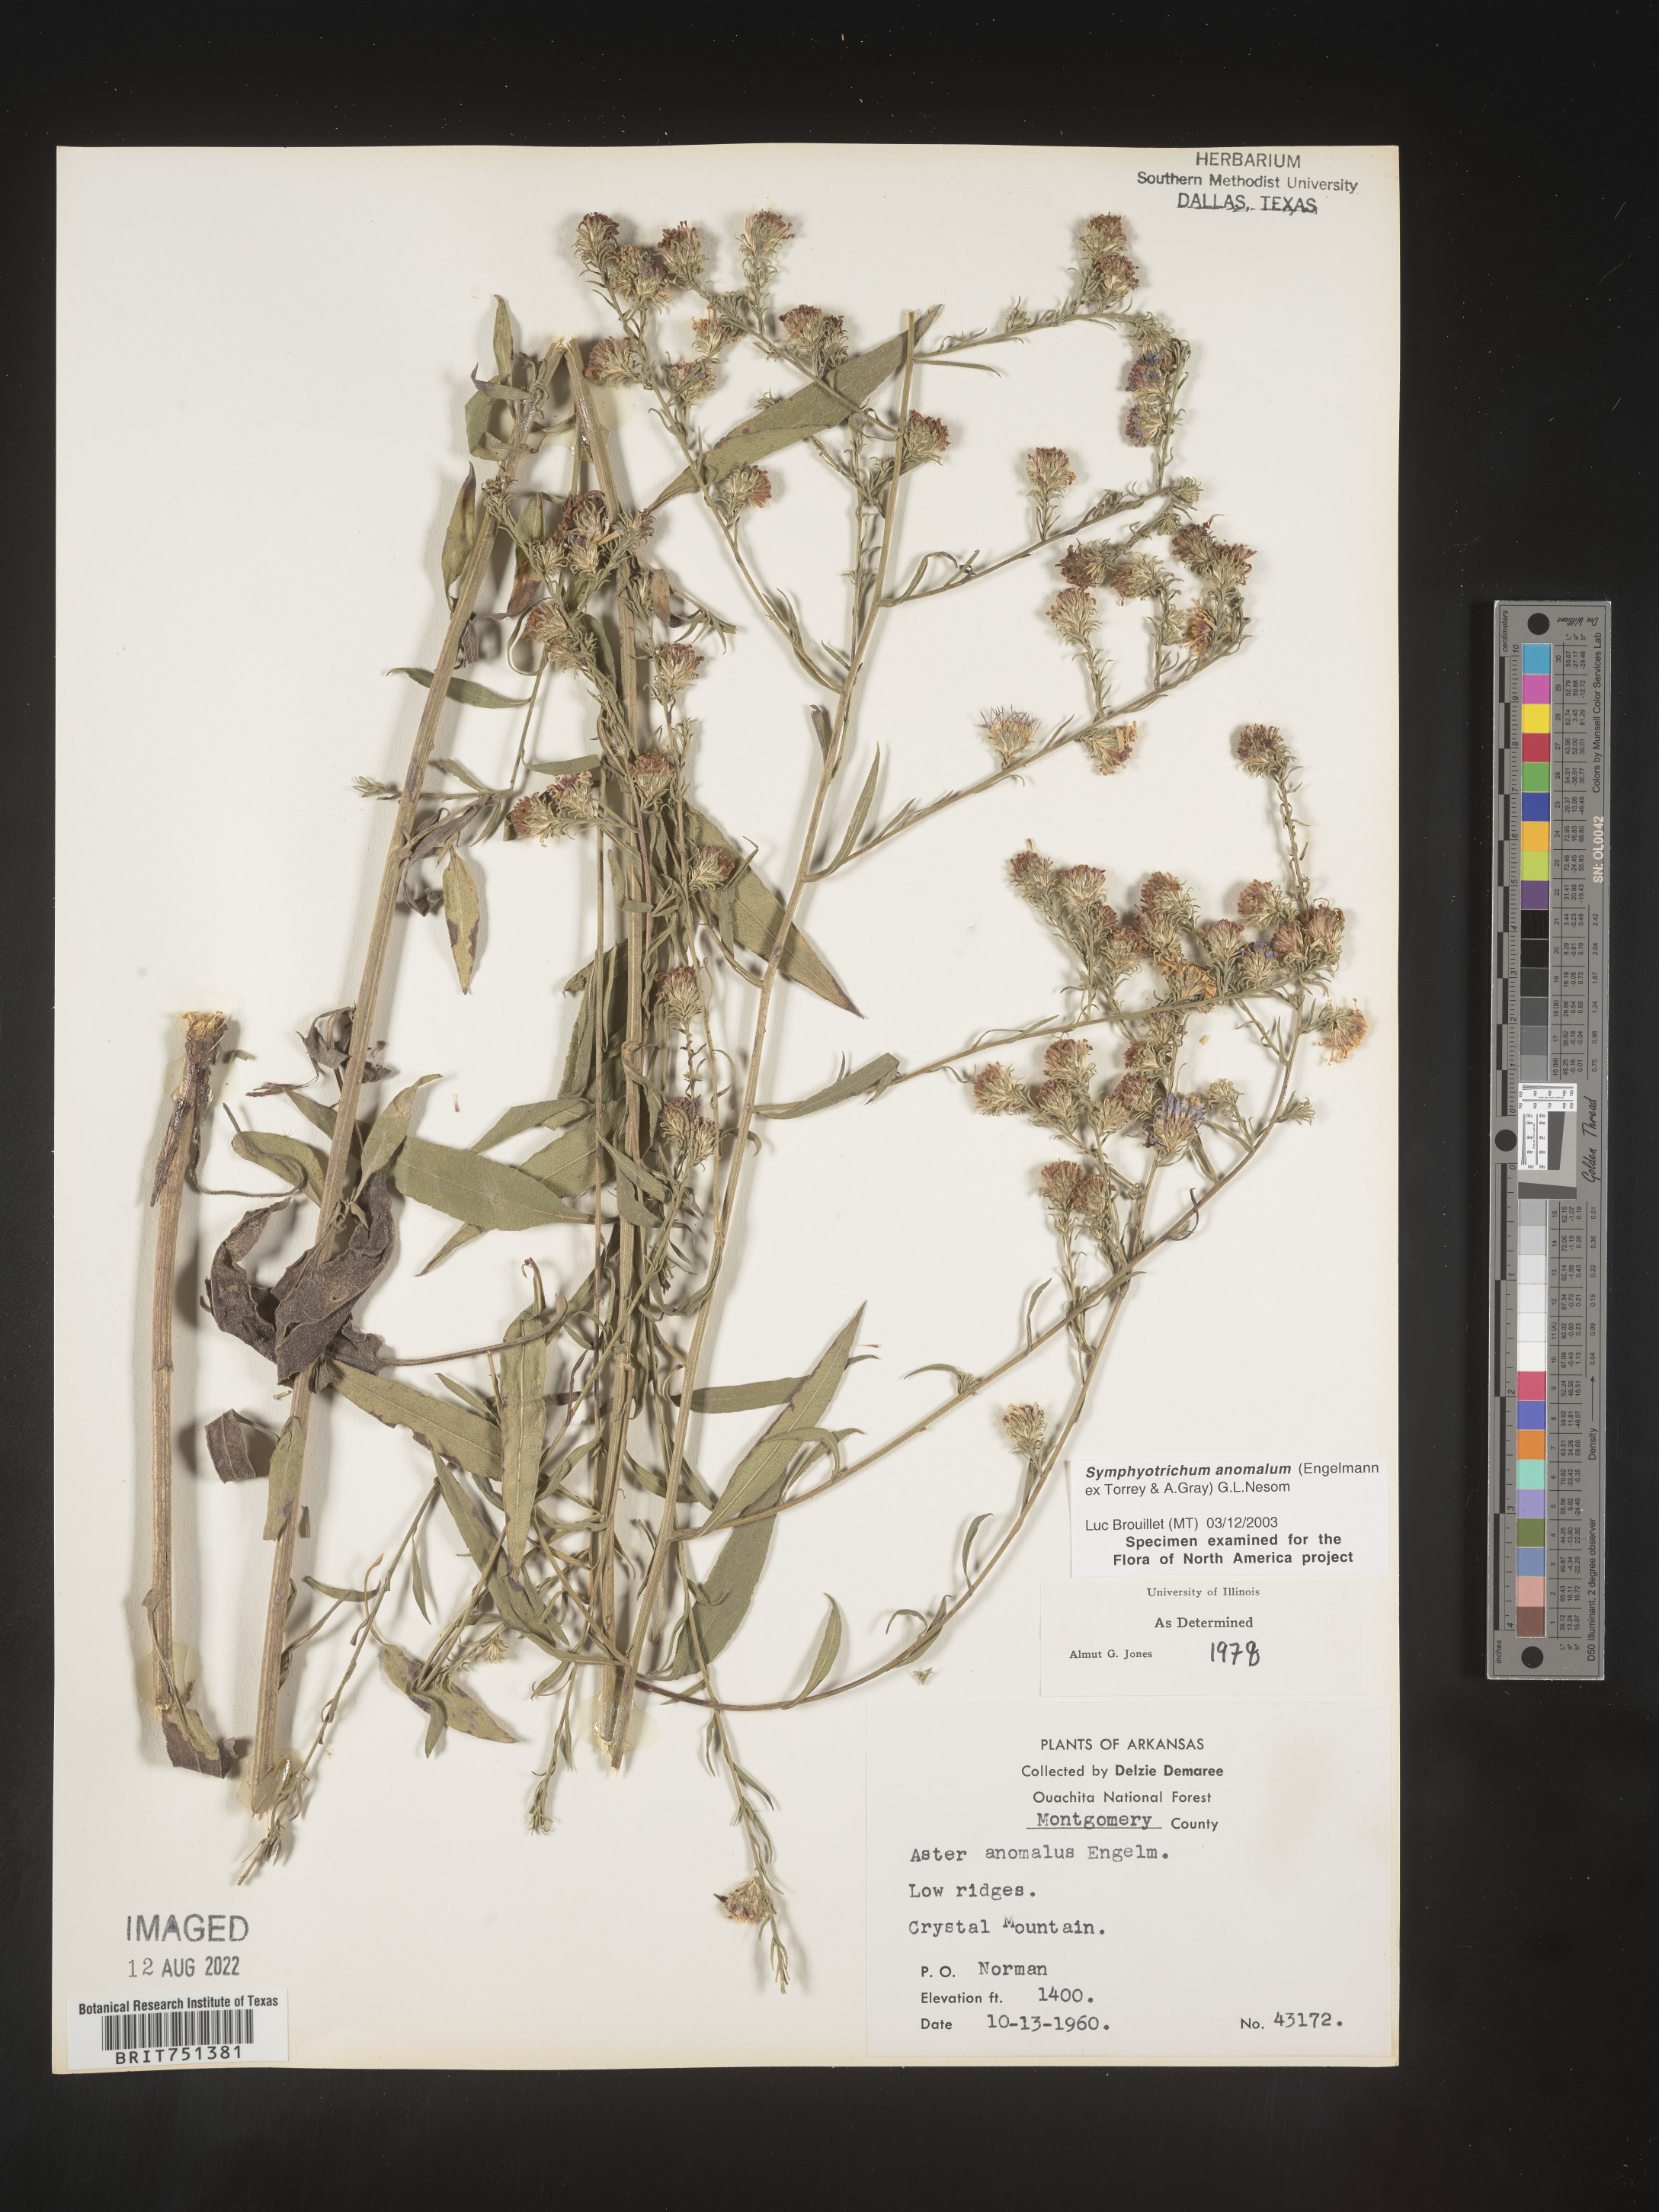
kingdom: Plantae
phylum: Tracheophyta
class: Magnoliopsida
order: Asterales
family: Asteraceae
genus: Symphyotrichum
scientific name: Symphyotrichum anomalum
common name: Many-ray aster
